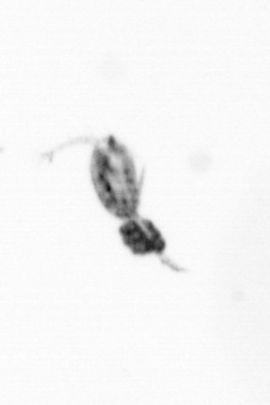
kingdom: Animalia
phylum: Arthropoda
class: Copepoda
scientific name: Copepoda
